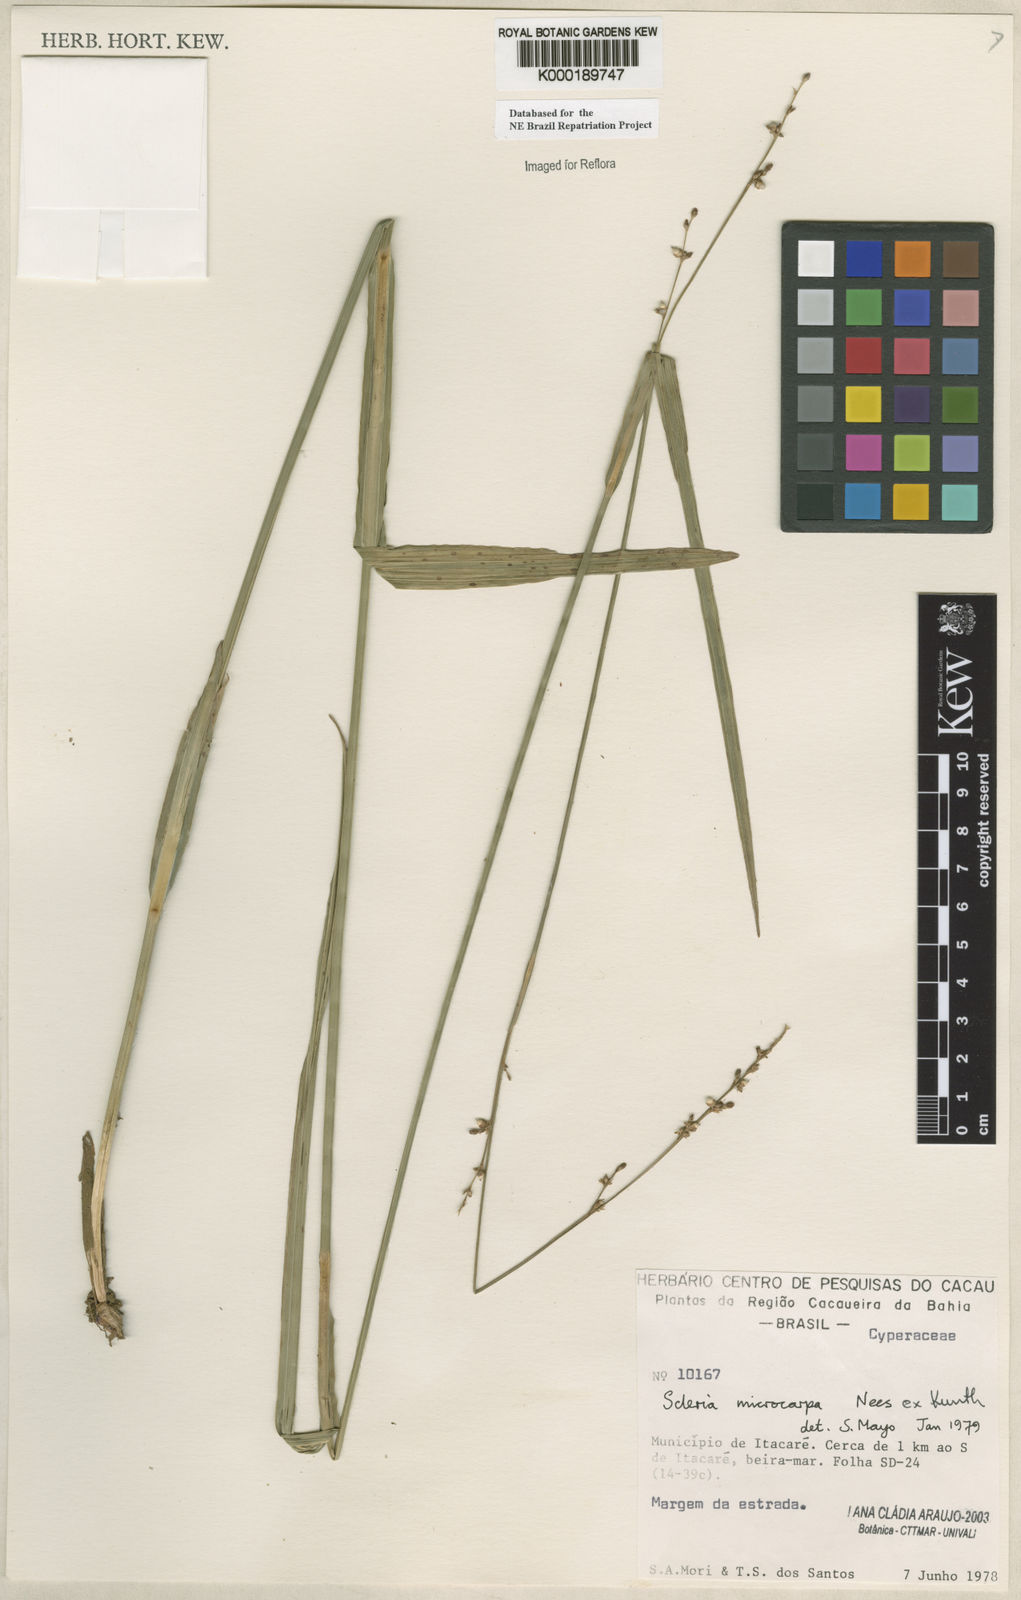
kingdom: Plantae
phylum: Tracheophyta
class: Liliopsida
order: Poales
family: Cyperaceae
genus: Scleria
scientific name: Scleria microcarpa
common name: Tropical nutrush
